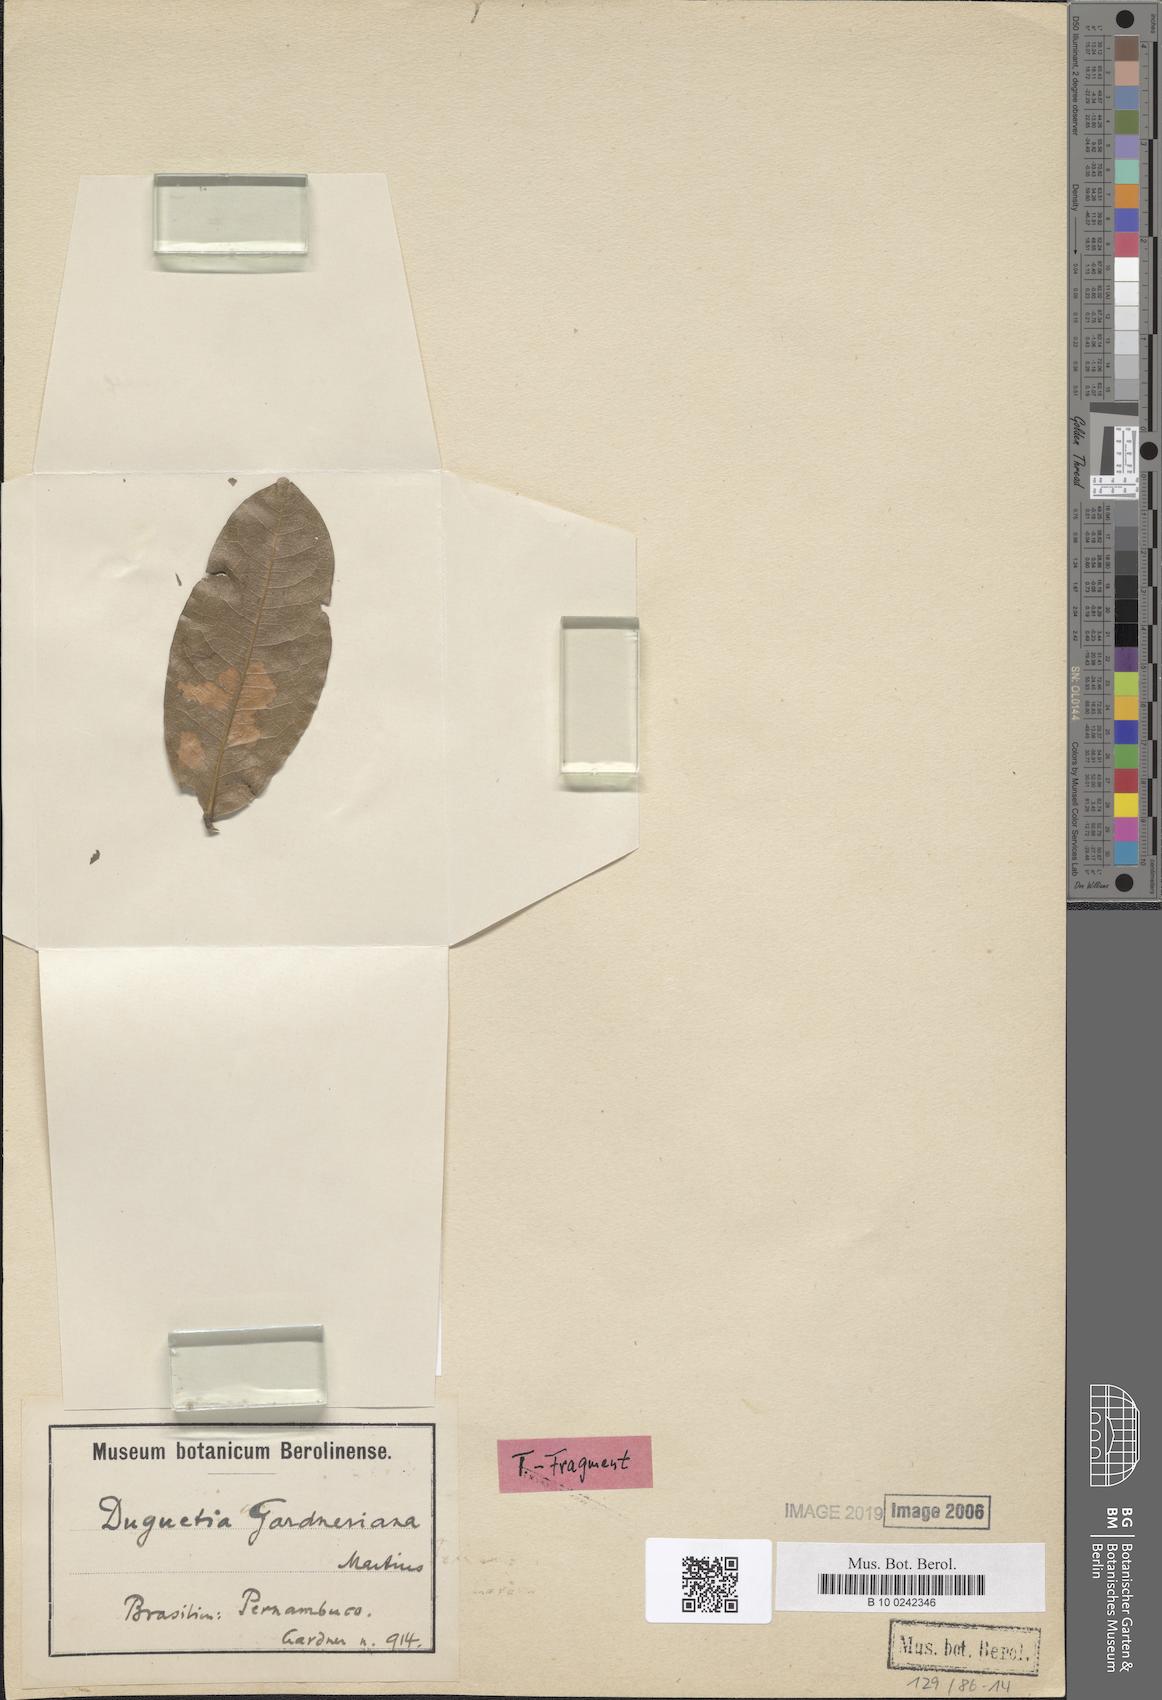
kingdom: Plantae
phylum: Tracheophyta
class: Magnoliopsida
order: Magnoliales
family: Annonaceae
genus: Duguetia
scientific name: Duguetia gardneriana
